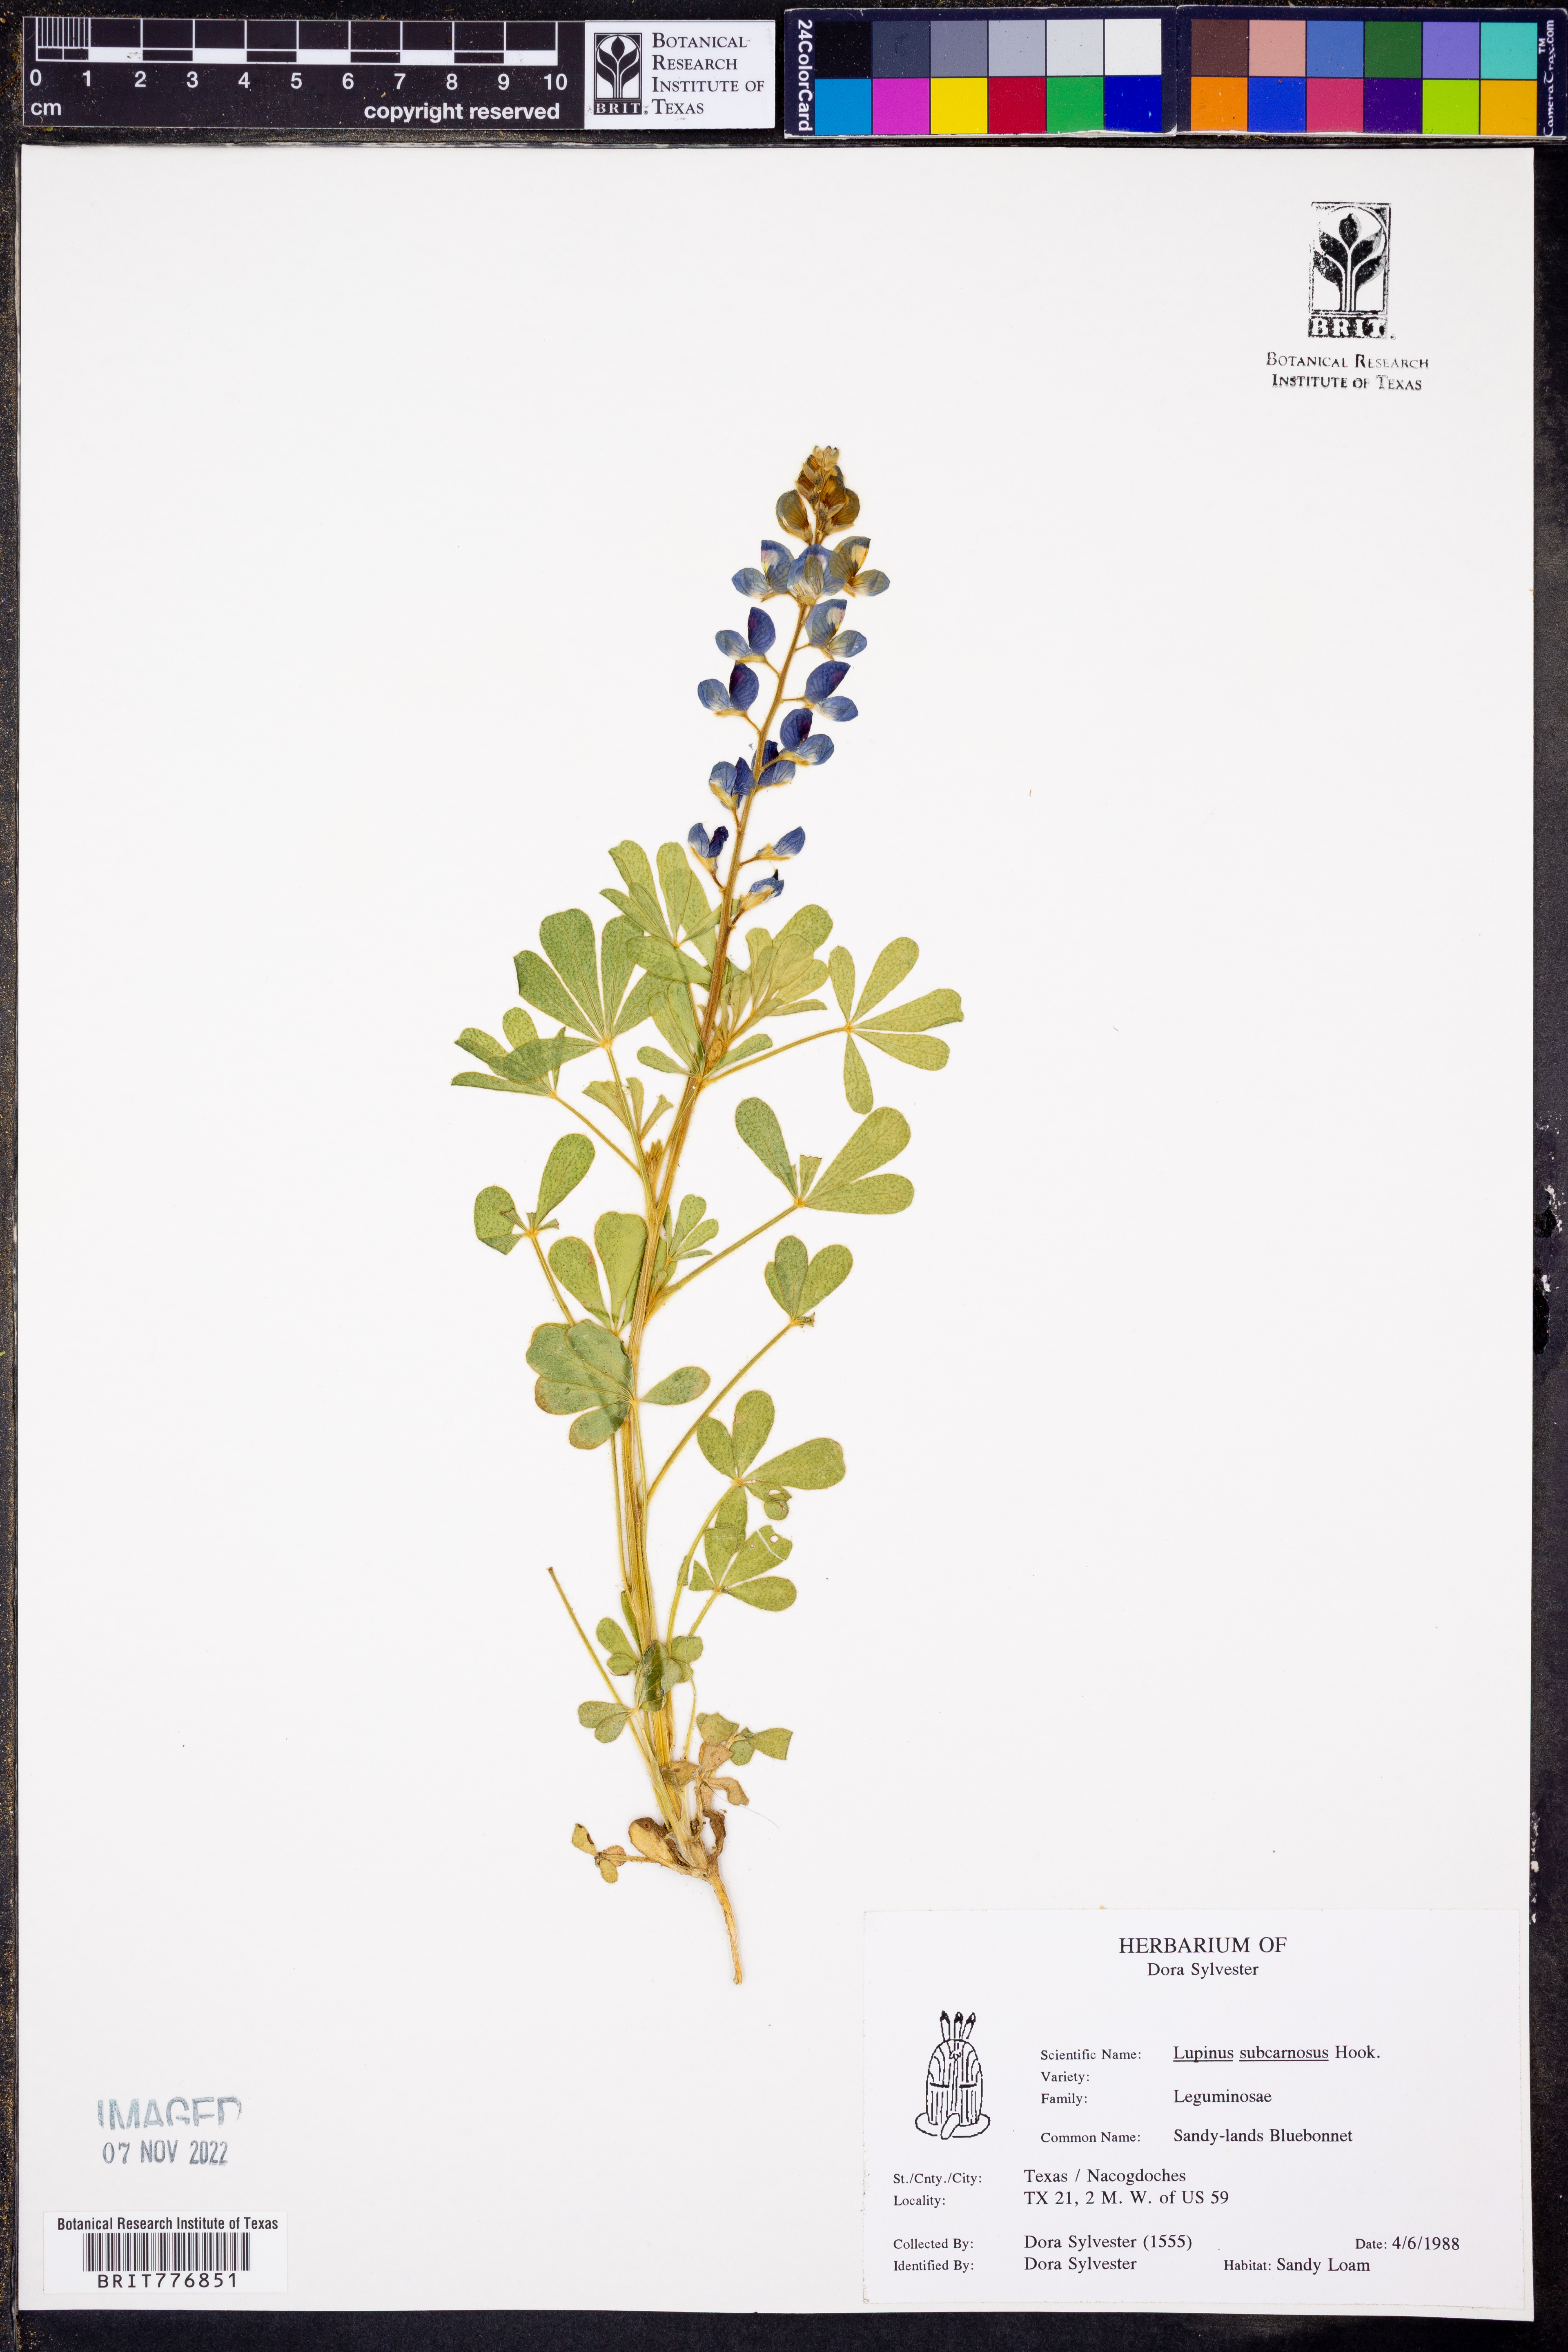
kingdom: Plantae
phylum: Tracheophyta
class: Magnoliopsida
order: Fabales
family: Fabaceae
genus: Lupinus
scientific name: Lupinus subcarnosus
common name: Texas bluebonnet
